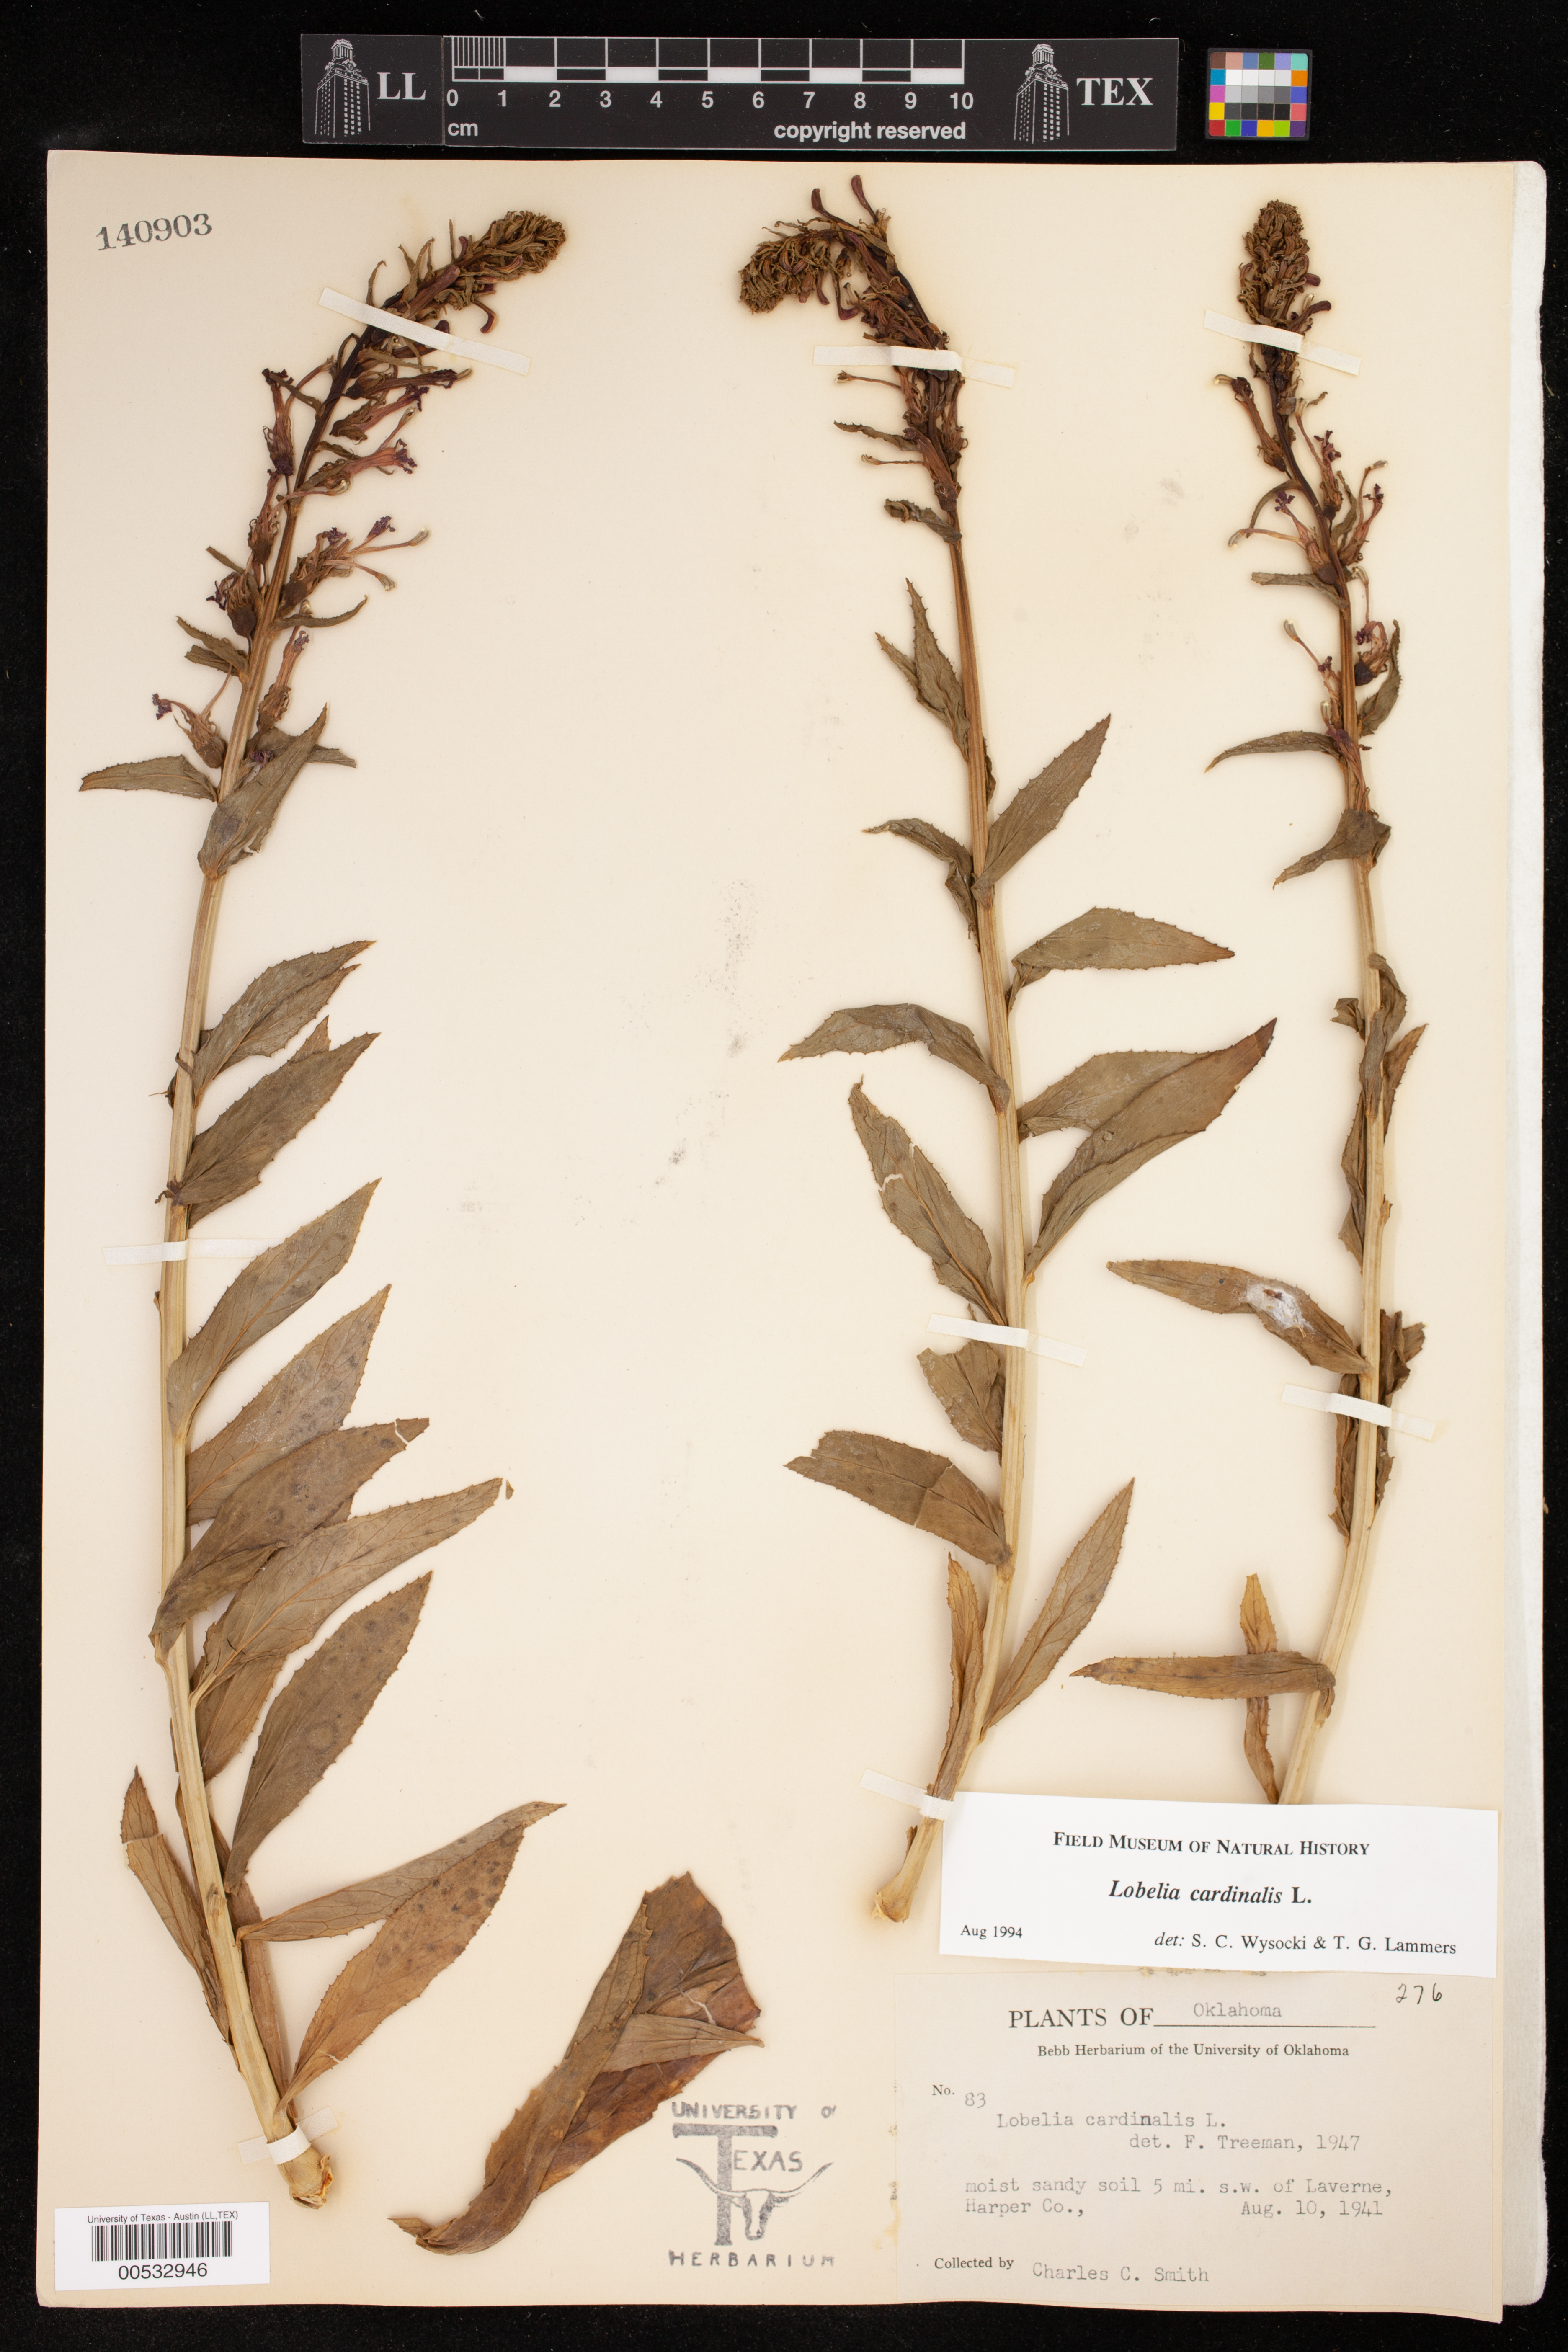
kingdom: Plantae
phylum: Tracheophyta
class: Magnoliopsida
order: Asterales
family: Campanulaceae
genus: Lobelia
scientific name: Lobelia cardinalis
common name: Cardinal flower
